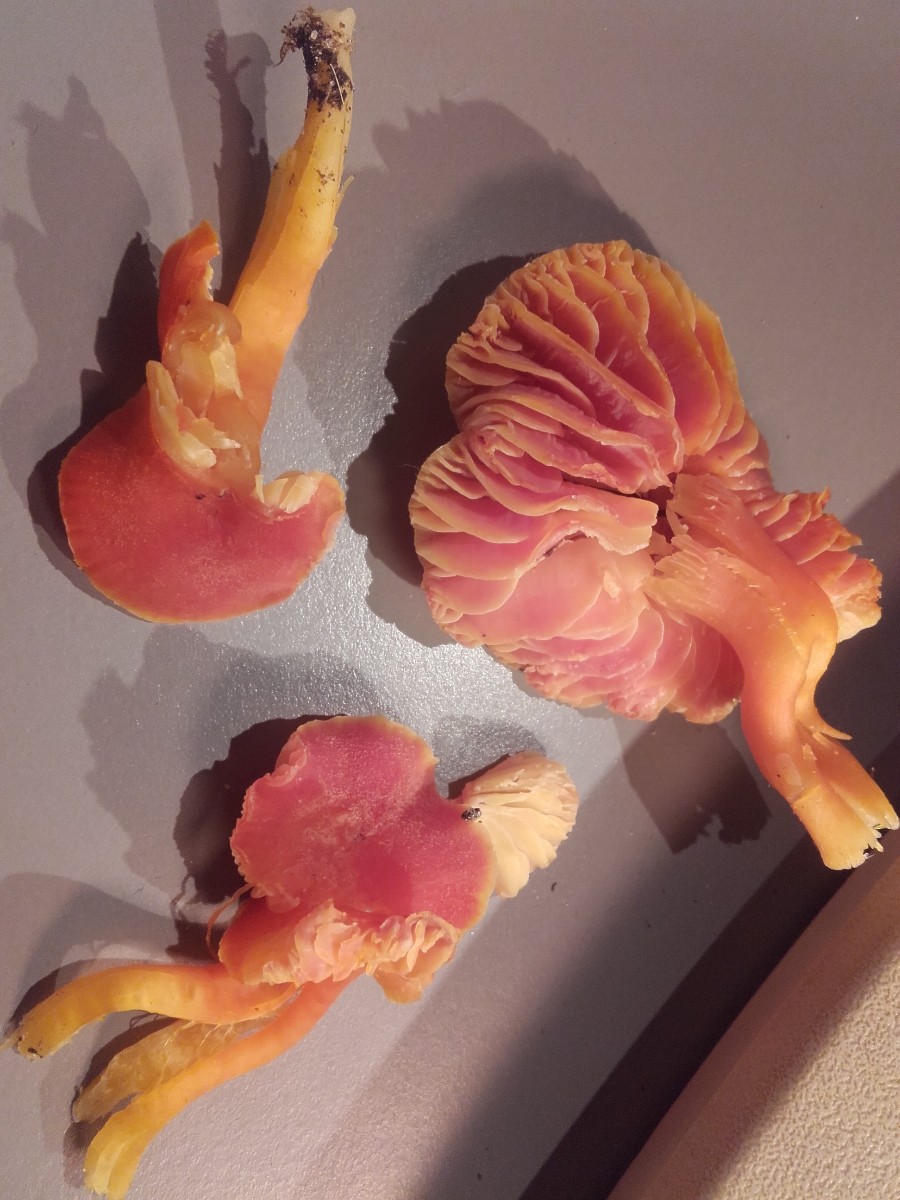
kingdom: Fungi
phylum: Basidiomycota
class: Agaricomycetes
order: Agaricales
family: Hygrophoraceae
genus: Hygrocybe
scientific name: Hygrocybe miniata
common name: mønje-vokshat
